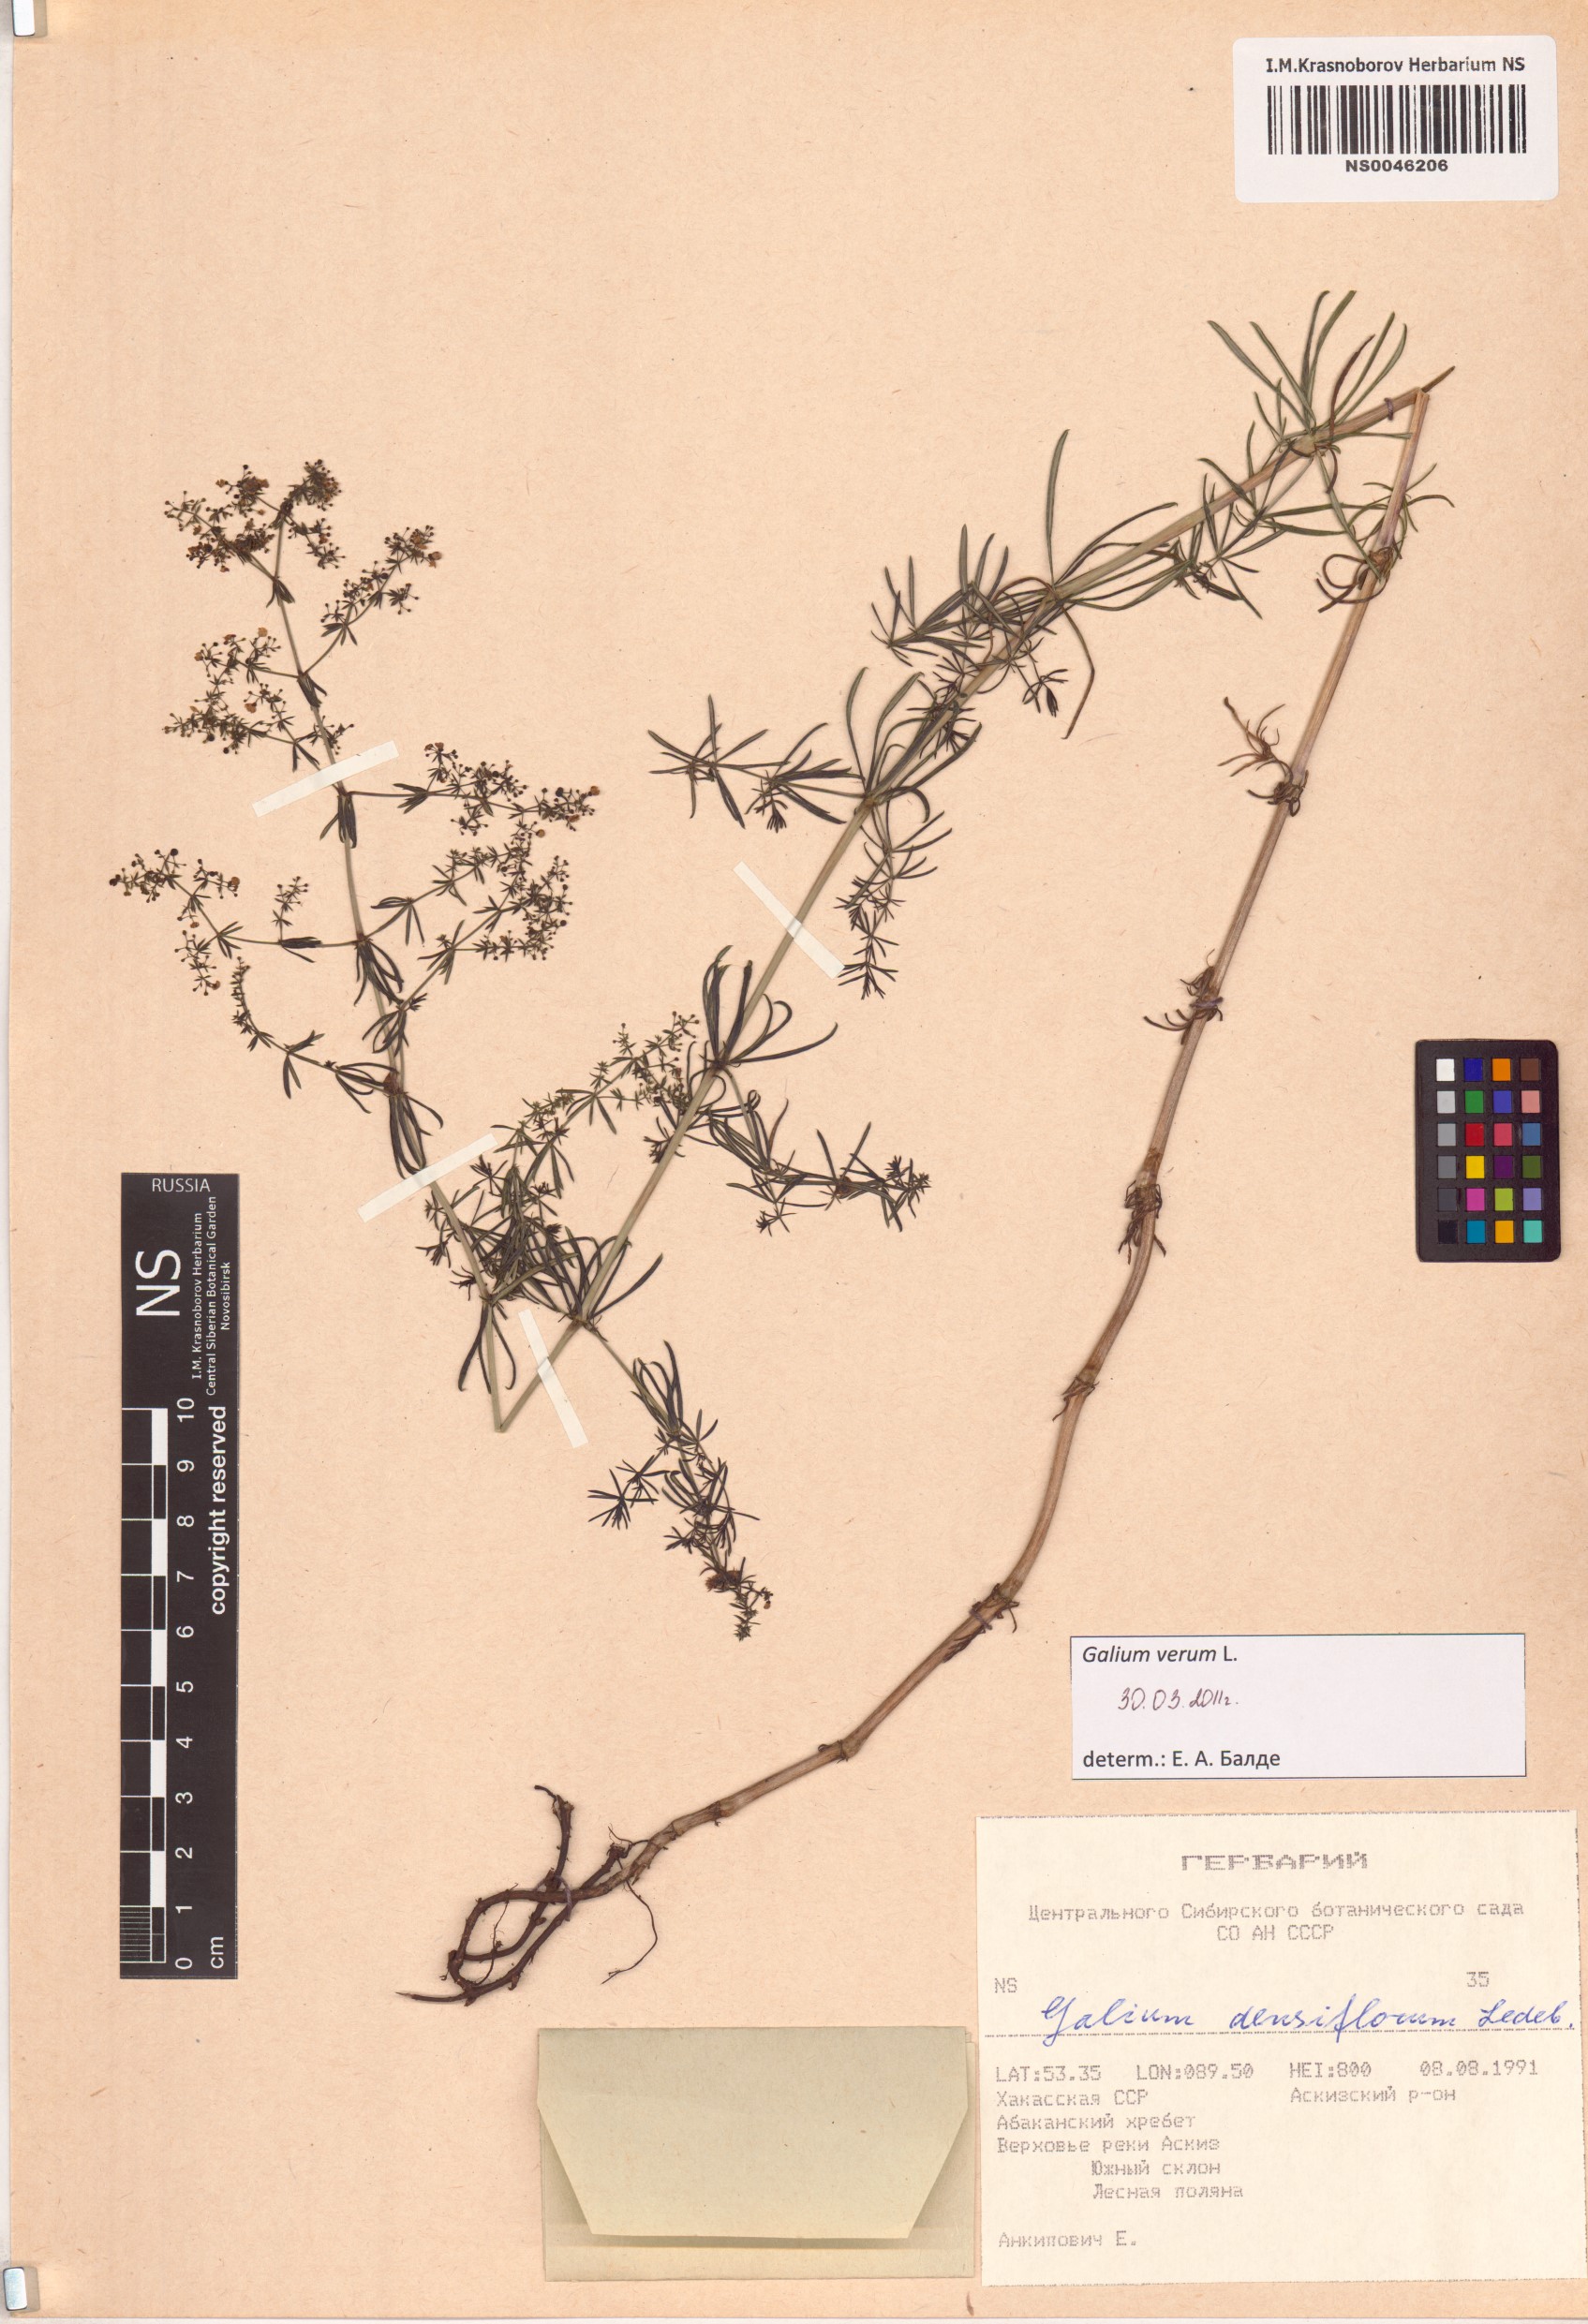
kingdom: Plantae
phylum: Tracheophyta
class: Magnoliopsida
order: Gentianales
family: Rubiaceae
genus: Galium
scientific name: Galium verum
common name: Lady's bedstraw
